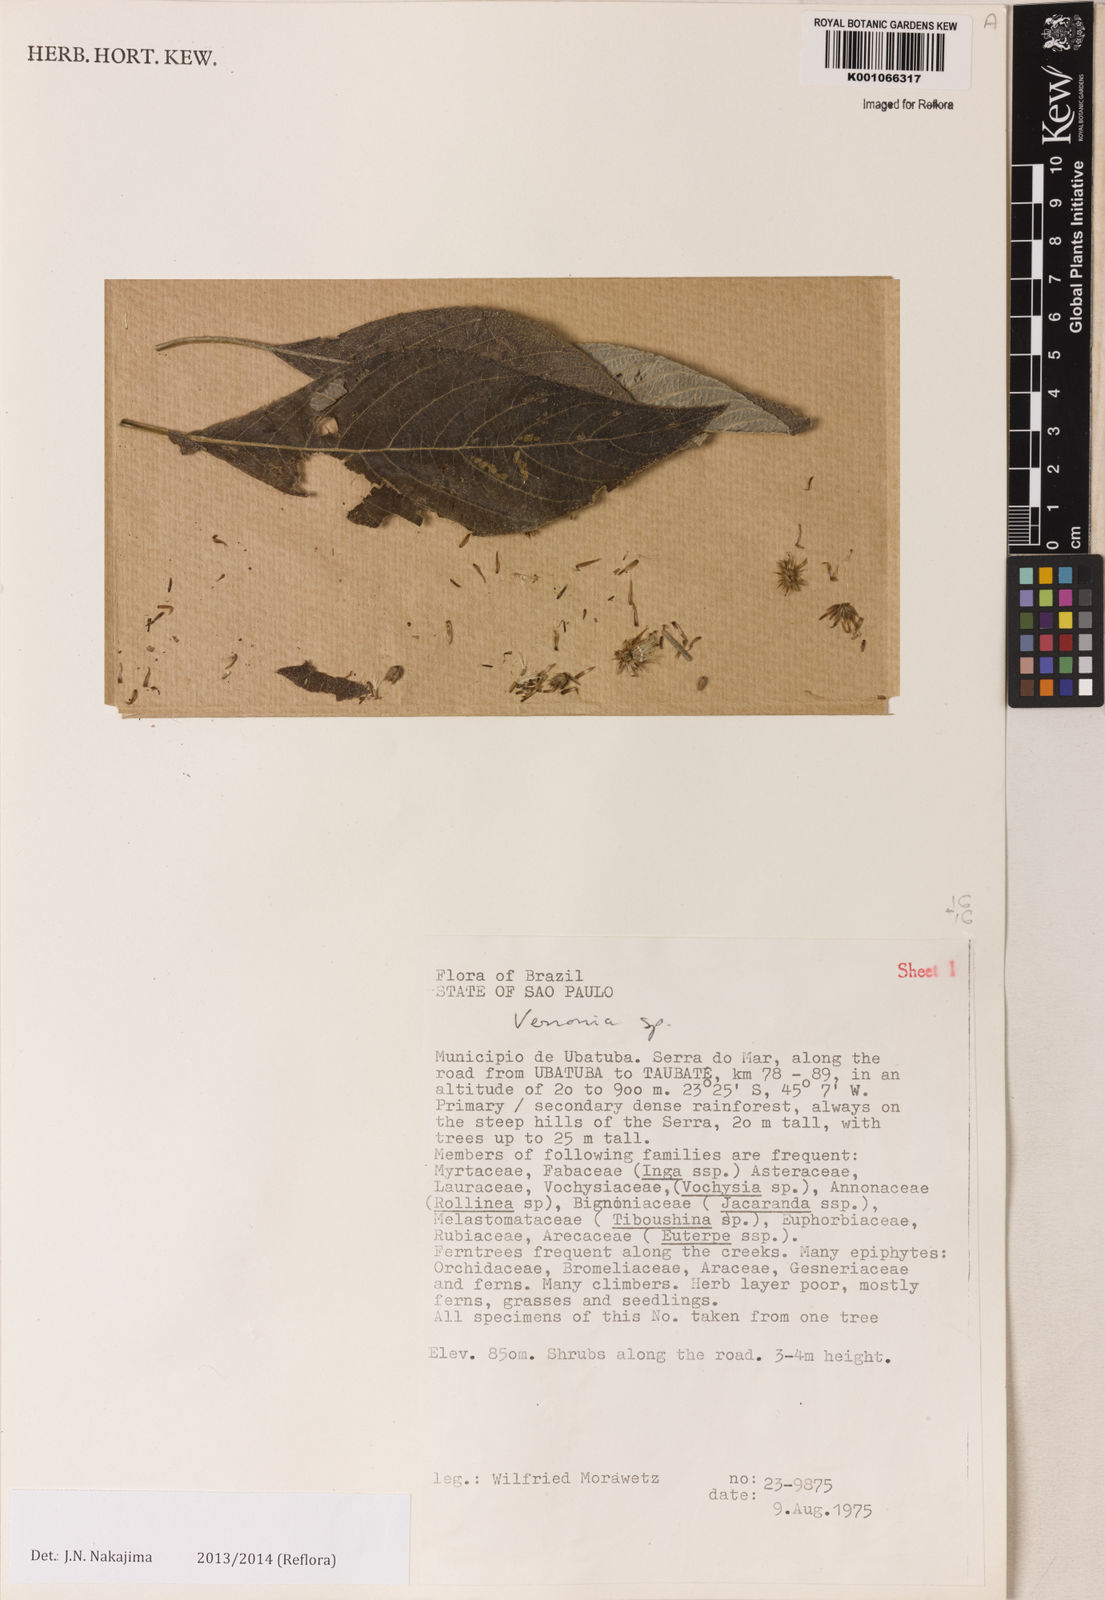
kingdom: Plantae
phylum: Tracheophyta
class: Magnoliopsida
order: Asterales
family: Asteraceae
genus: Lepidaploa
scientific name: Lepidaploa argyrotricha
